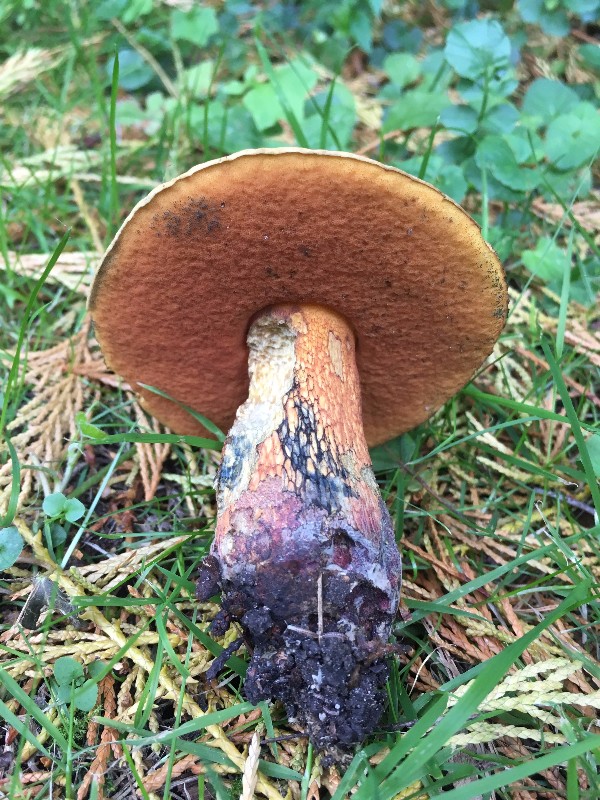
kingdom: Fungi
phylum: Basidiomycota
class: Agaricomycetes
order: Boletales
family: Boletaceae
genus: Suillellus
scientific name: Suillellus luridus
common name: netstokket indigorørhat
